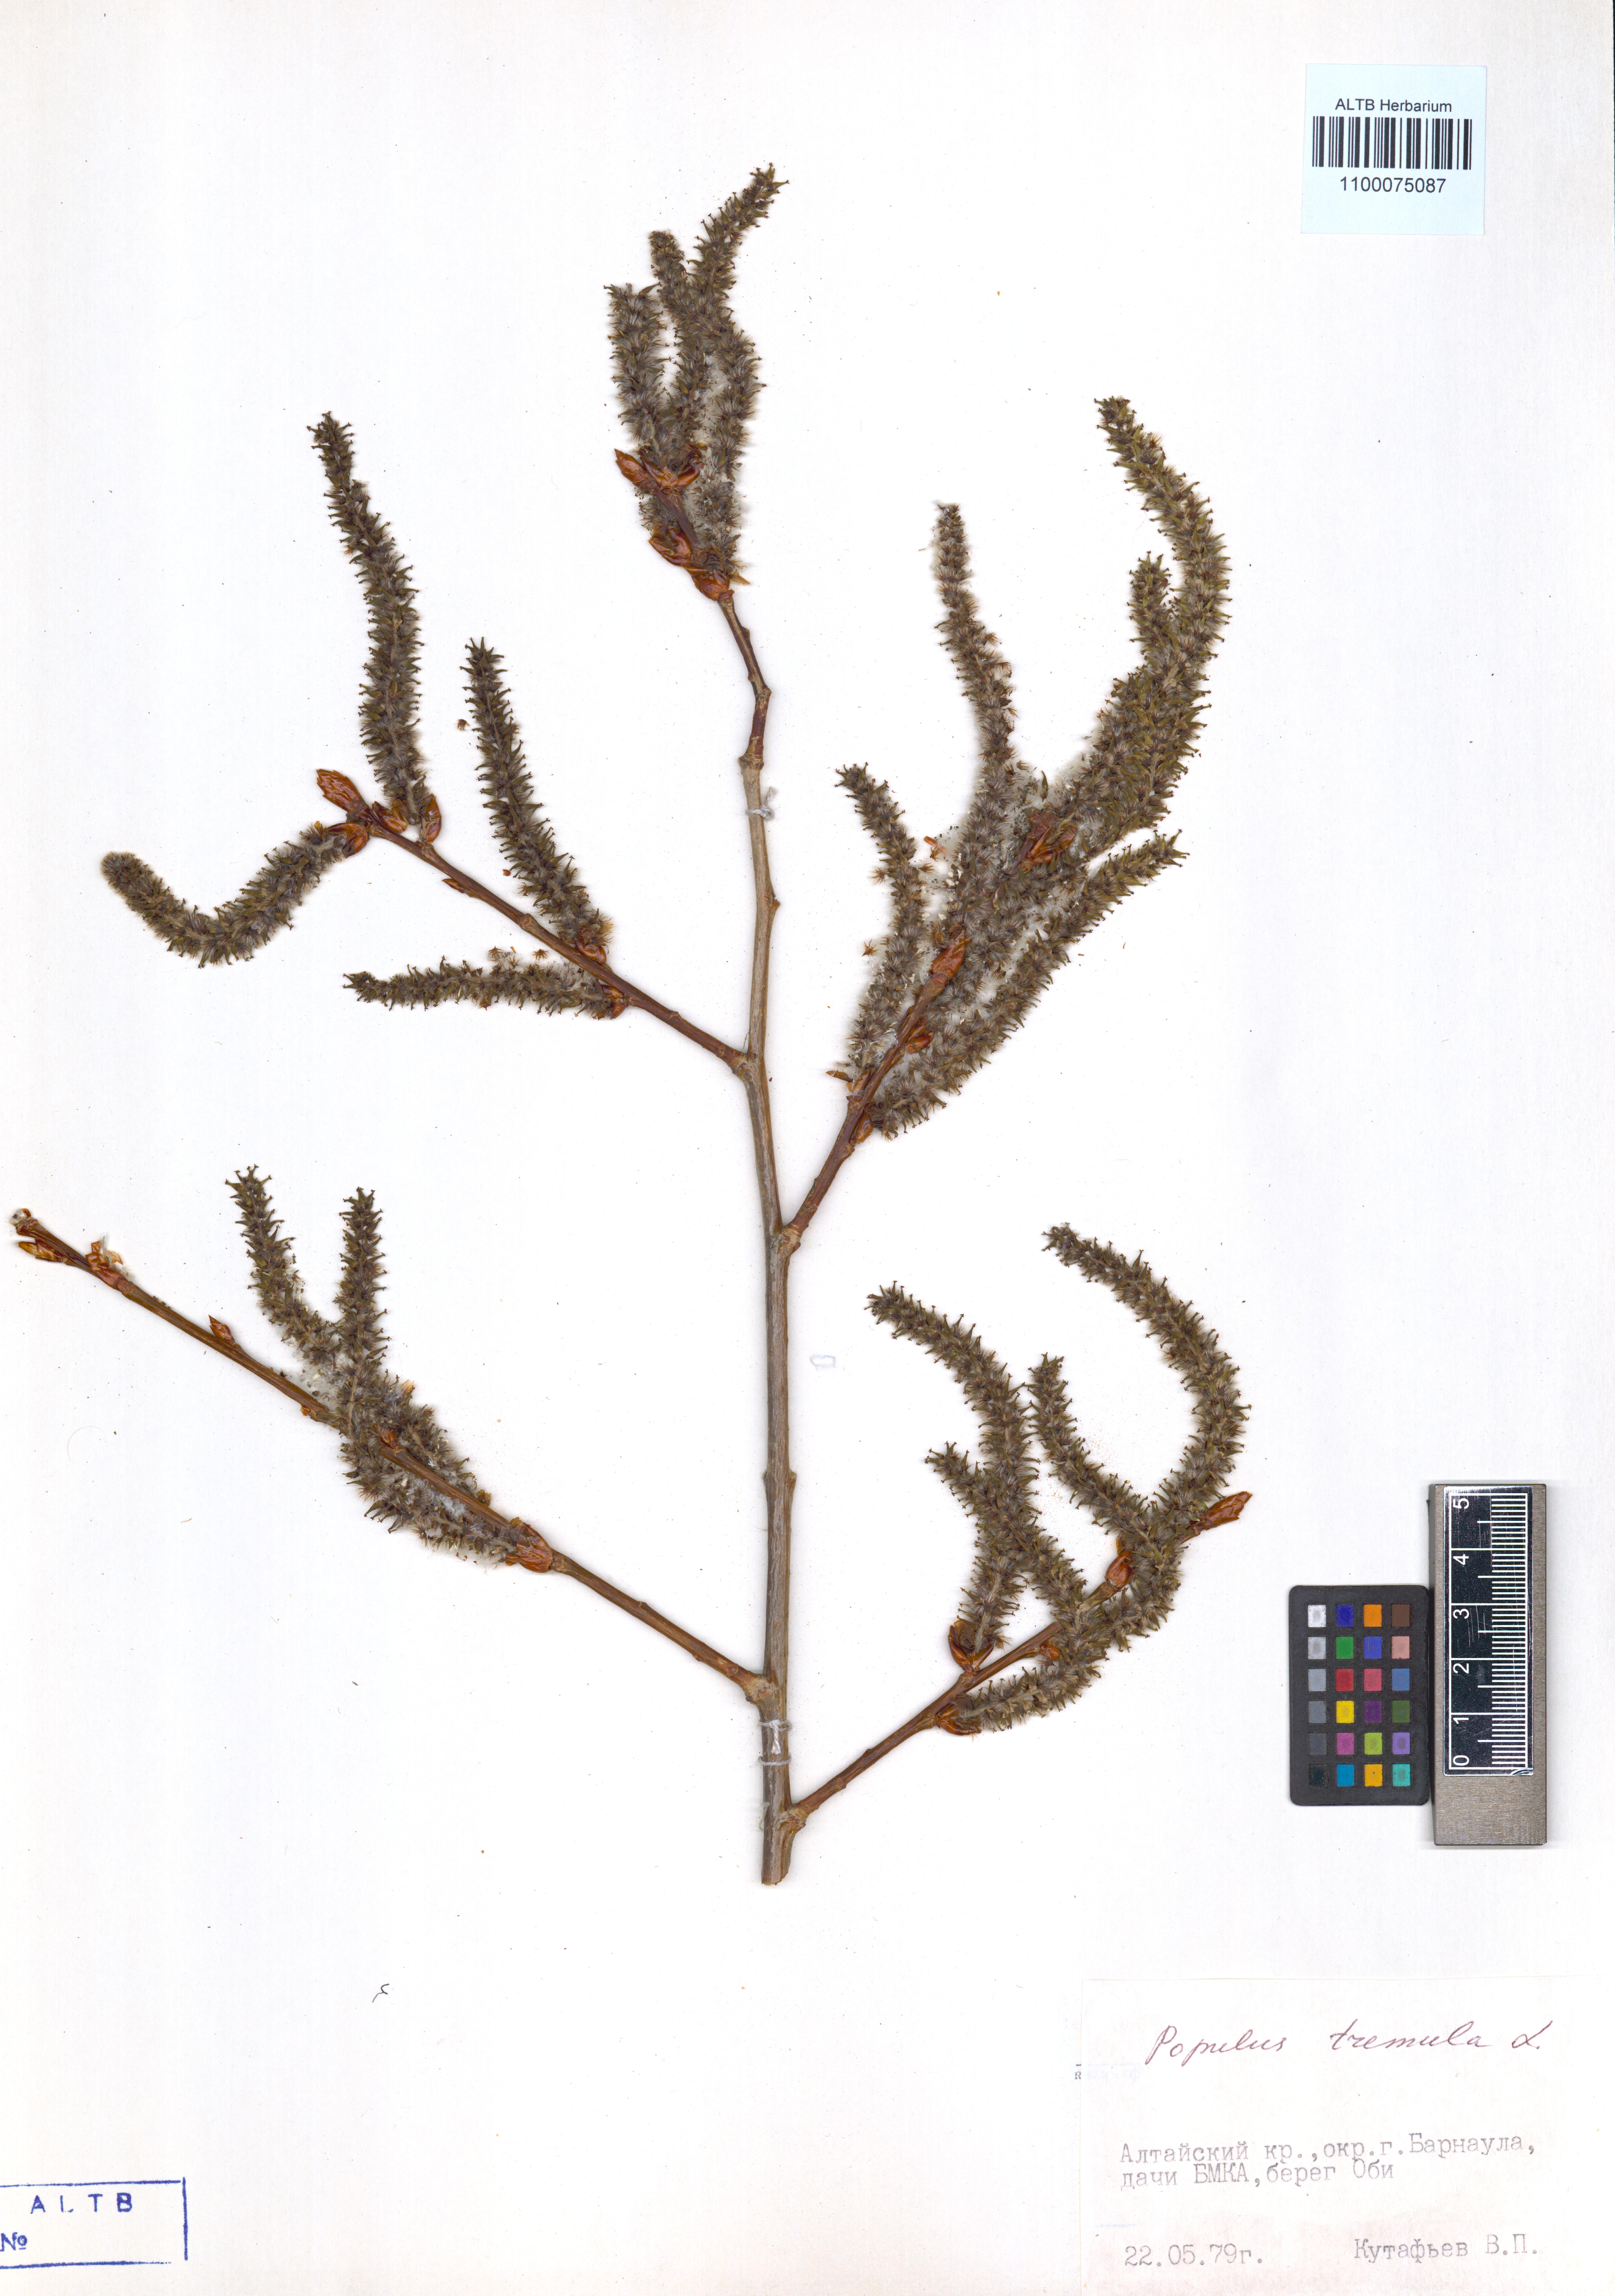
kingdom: Plantae
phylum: Tracheophyta
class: Magnoliopsida
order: Malpighiales
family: Salicaceae
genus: Populus
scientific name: Populus tremula
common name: European aspen
